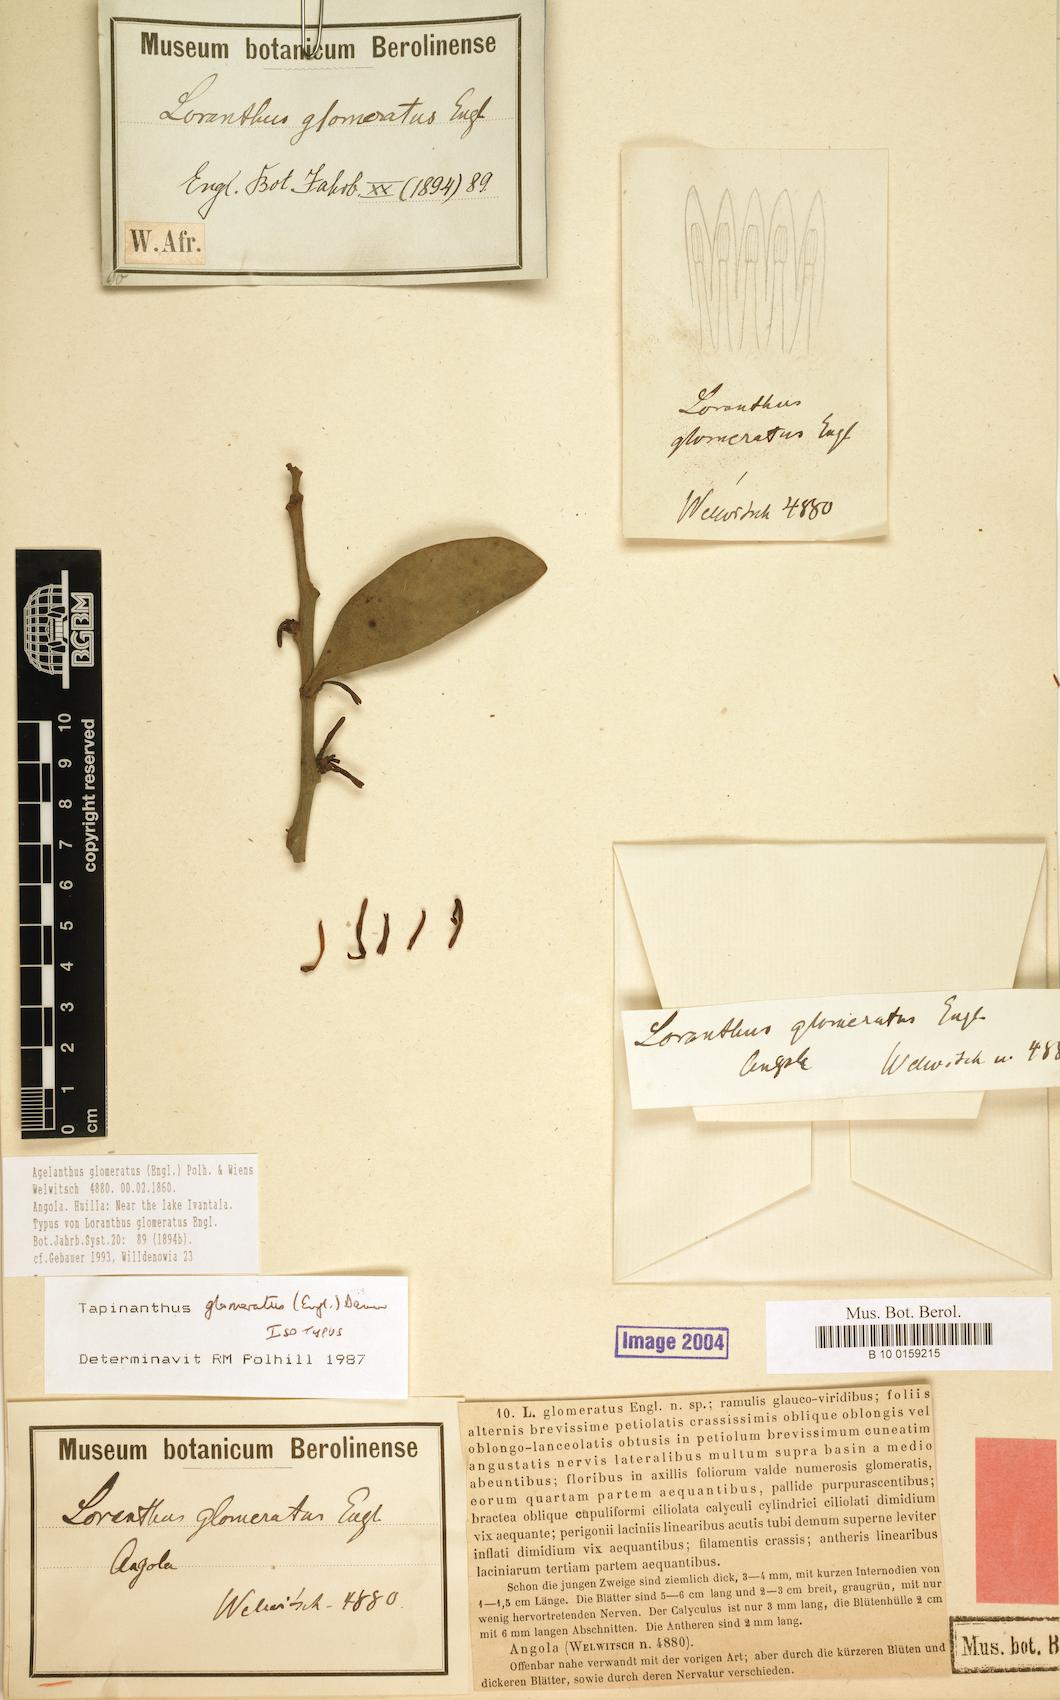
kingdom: Plantae
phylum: Tracheophyta
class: Magnoliopsida
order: Santalales
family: Loranthaceae
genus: Agelanthus
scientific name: Agelanthus glomeratus
